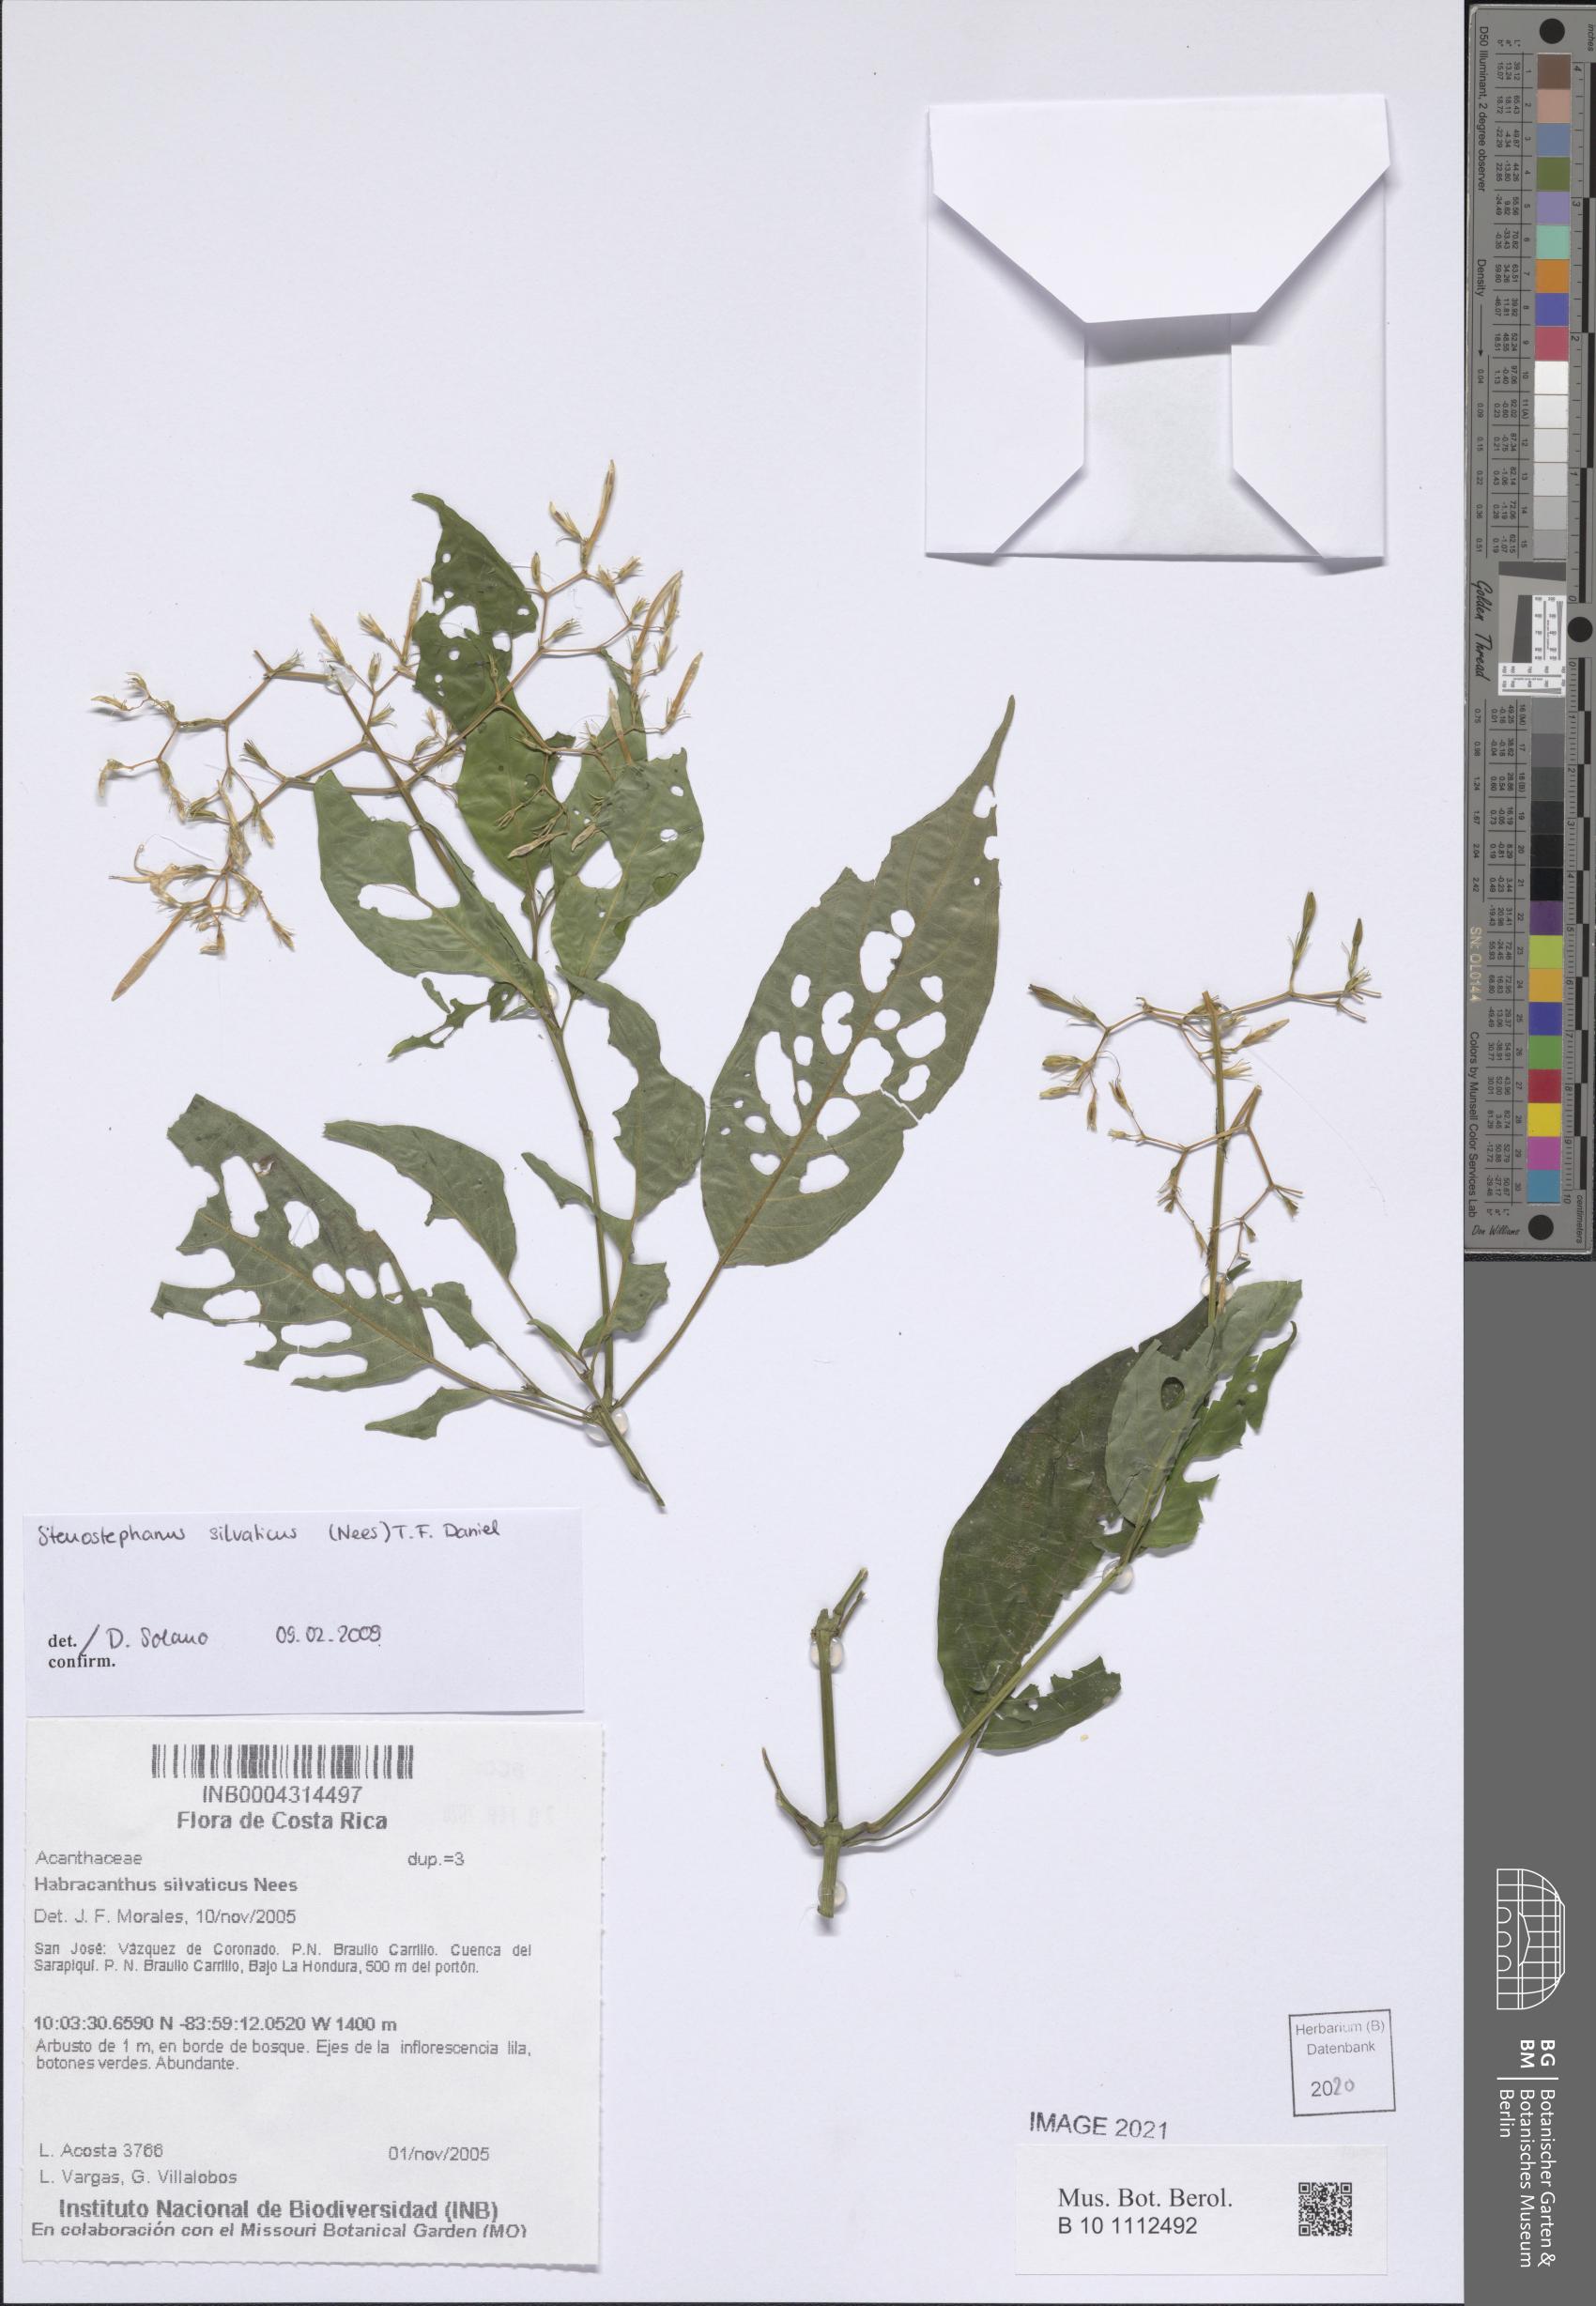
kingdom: Plantae
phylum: Tracheophyta
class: Magnoliopsida
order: Lamiales
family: Acanthaceae
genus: Stenostephanus
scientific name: Stenostephanus silvaticus
